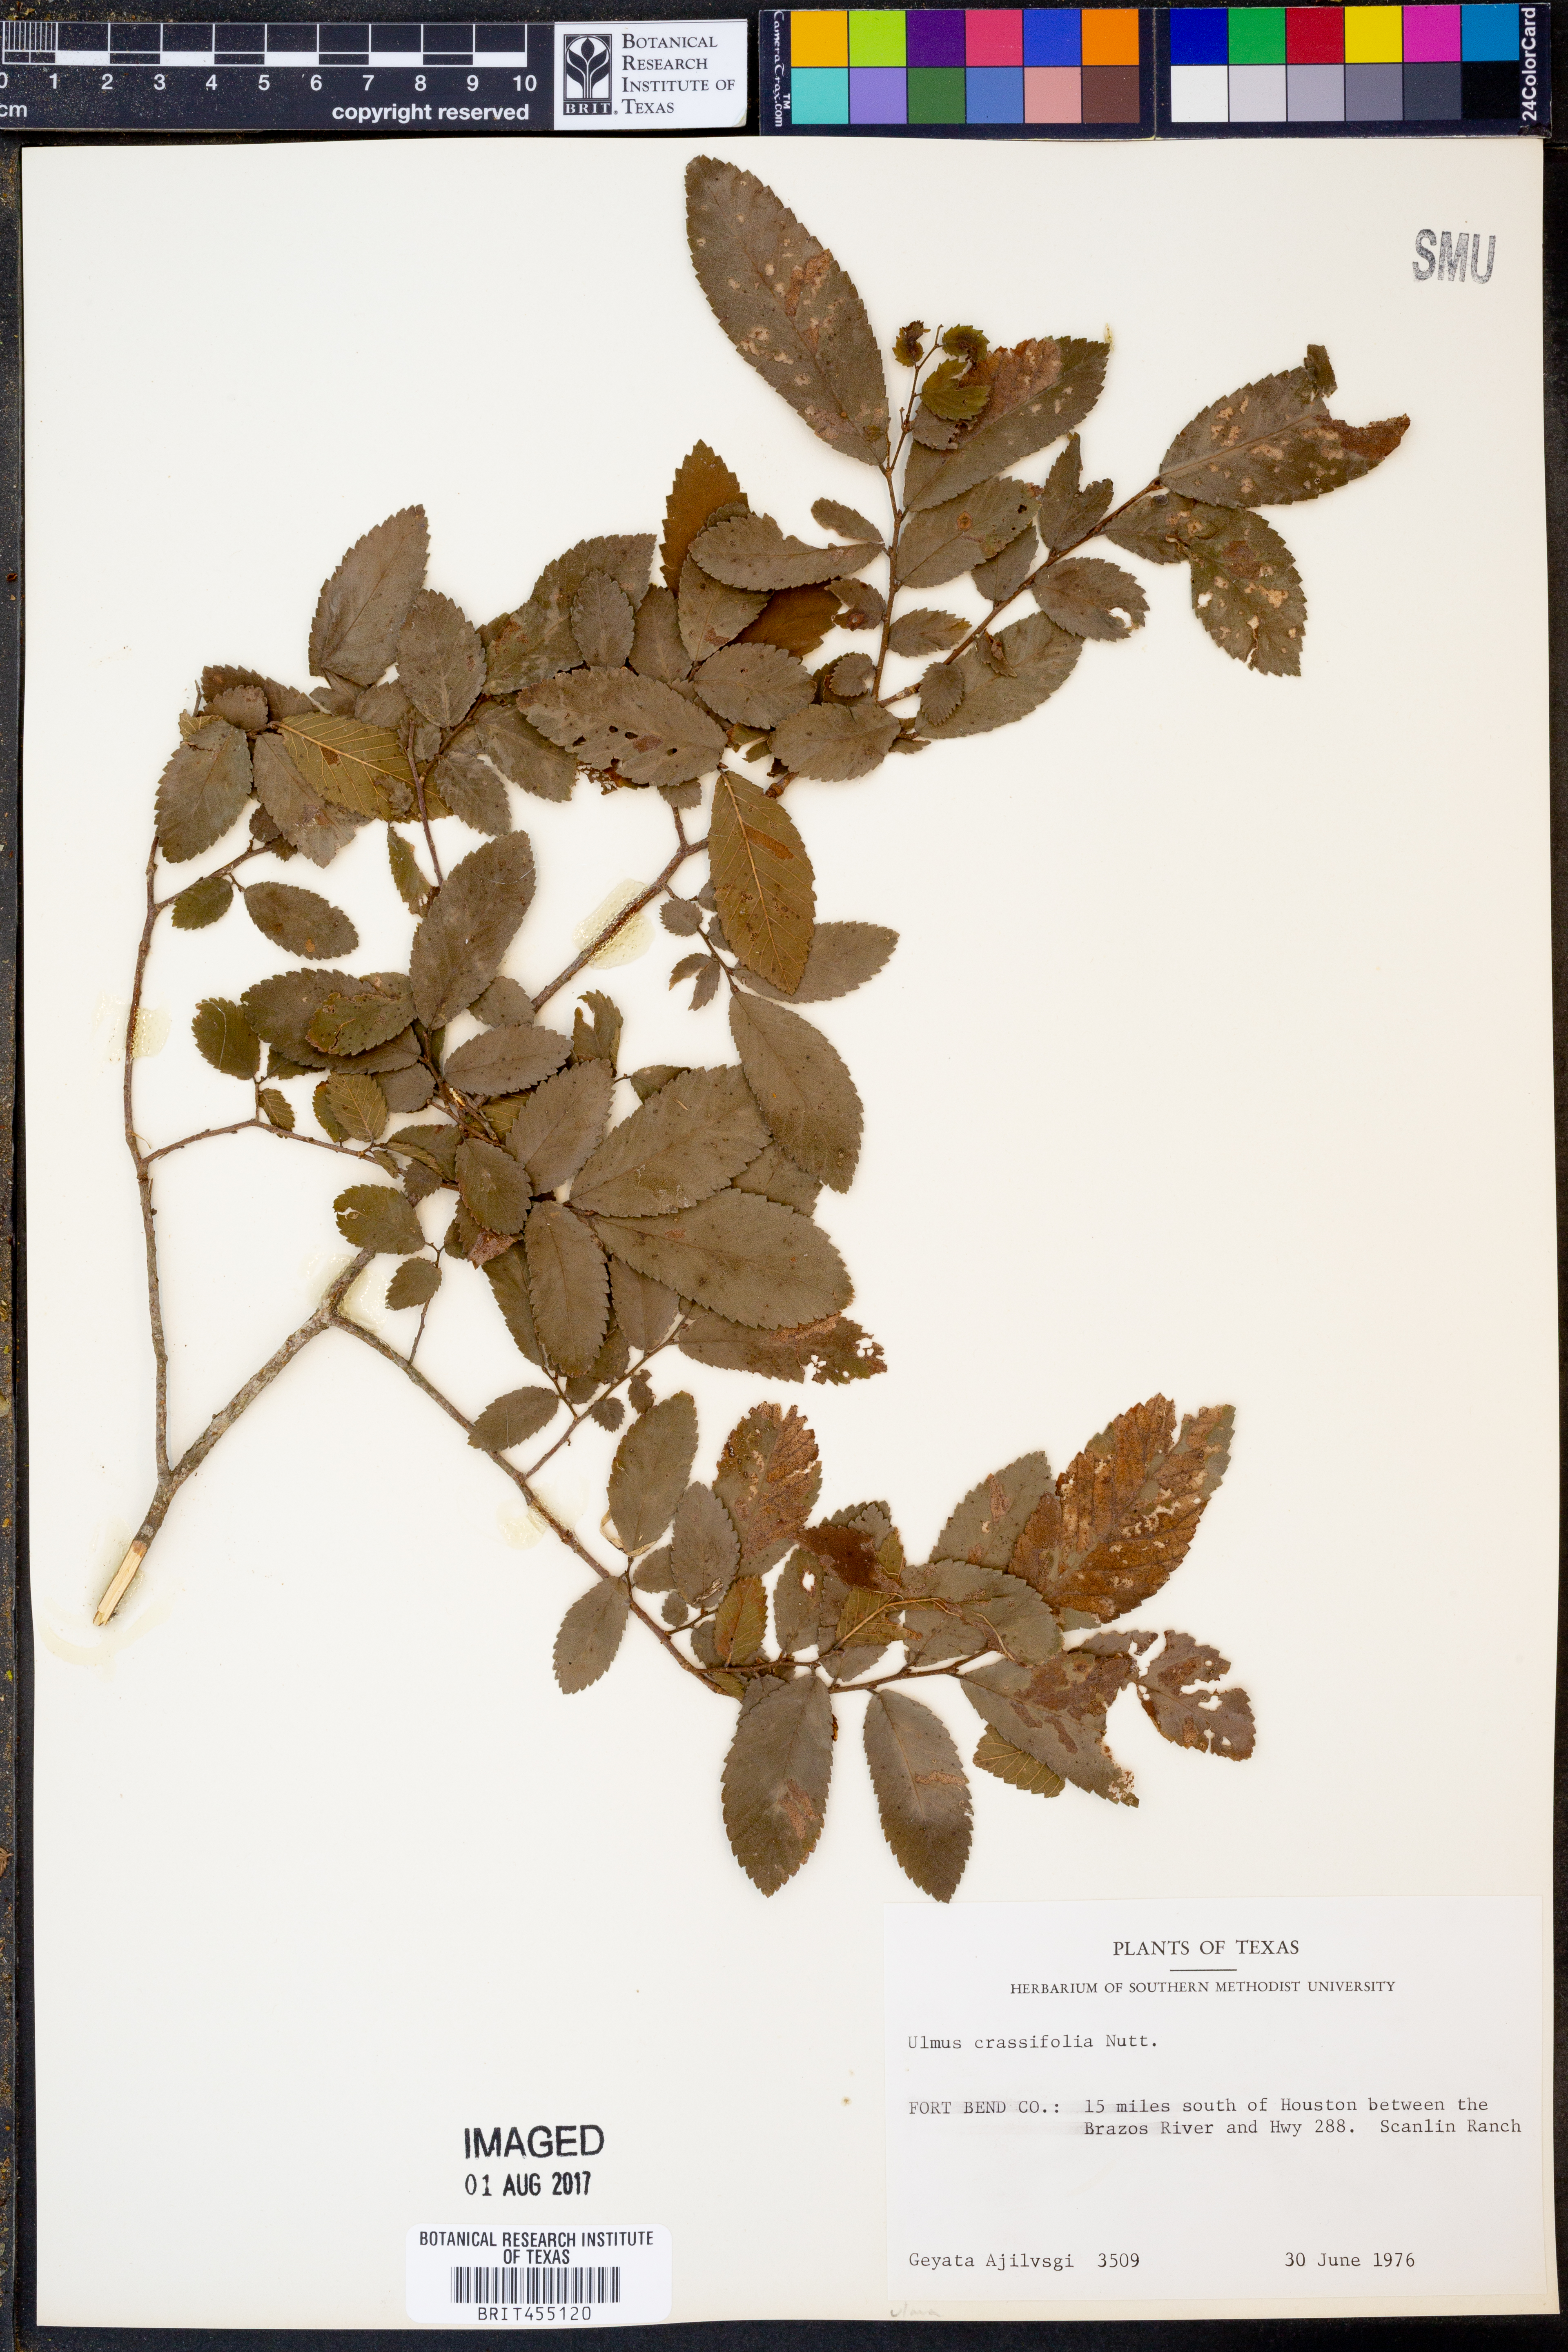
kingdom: Plantae
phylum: Tracheophyta
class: Magnoliopsida
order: Rosales
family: Ulmaceae
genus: Ulmus
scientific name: Ulmus crassifolia
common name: Basket elm
